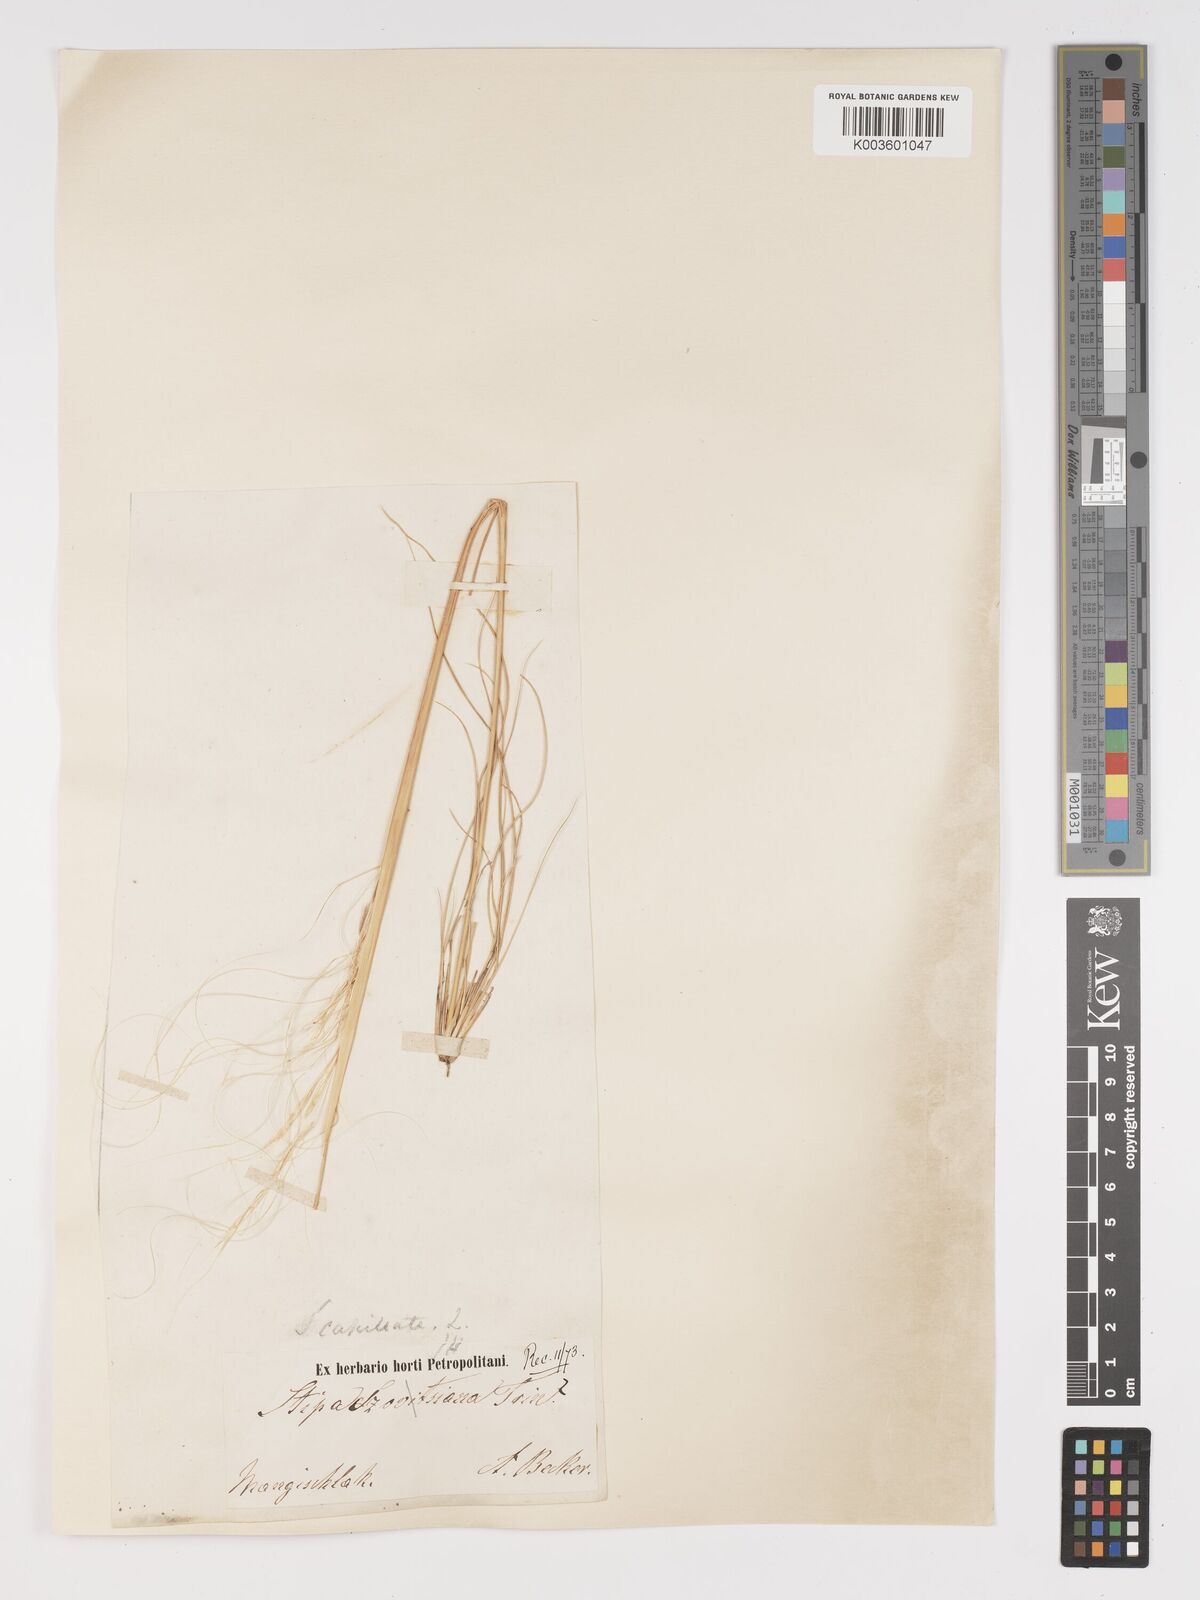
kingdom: Plantae
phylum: Tracheophyta
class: Liliopsida
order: Poales
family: Poaceae
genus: Stipa
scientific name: Stipa capillata
